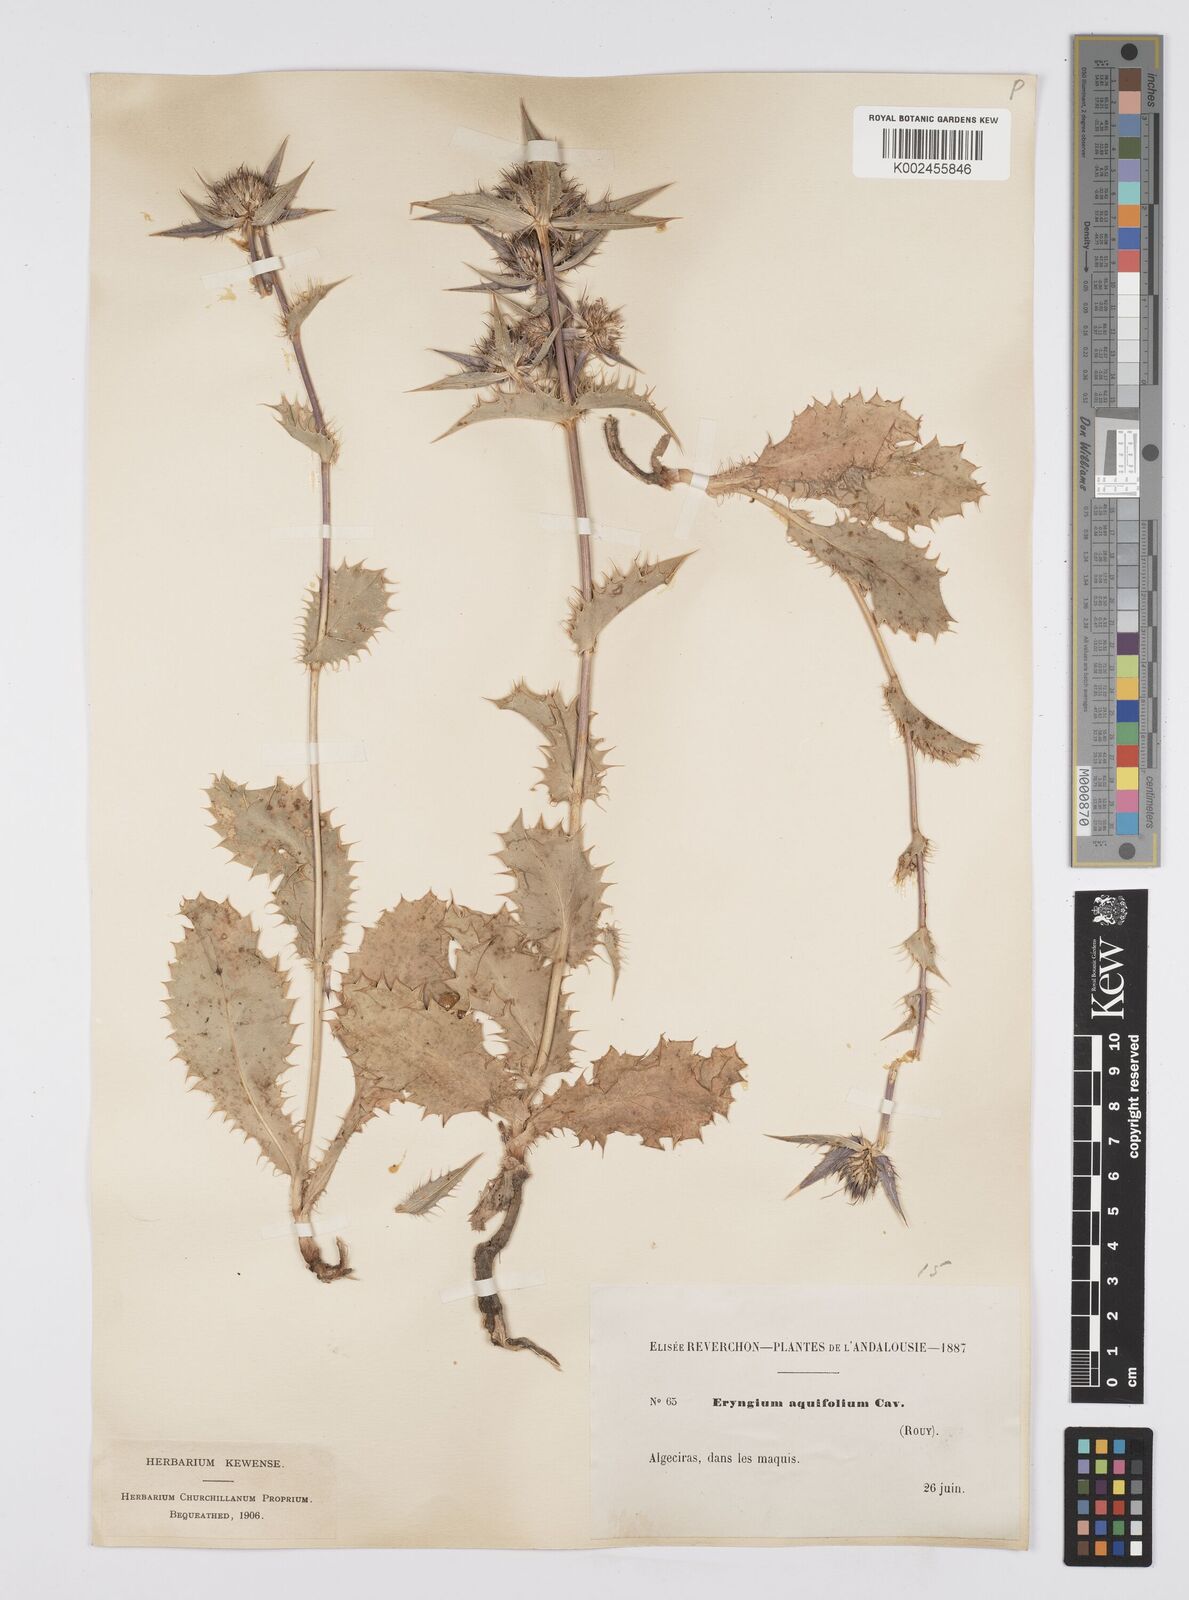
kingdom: Plantae
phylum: Tracheophyta
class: Magnoliopsida
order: Apiales
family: Apiaceae
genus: Eryngium
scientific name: Eryngium aquifolium
